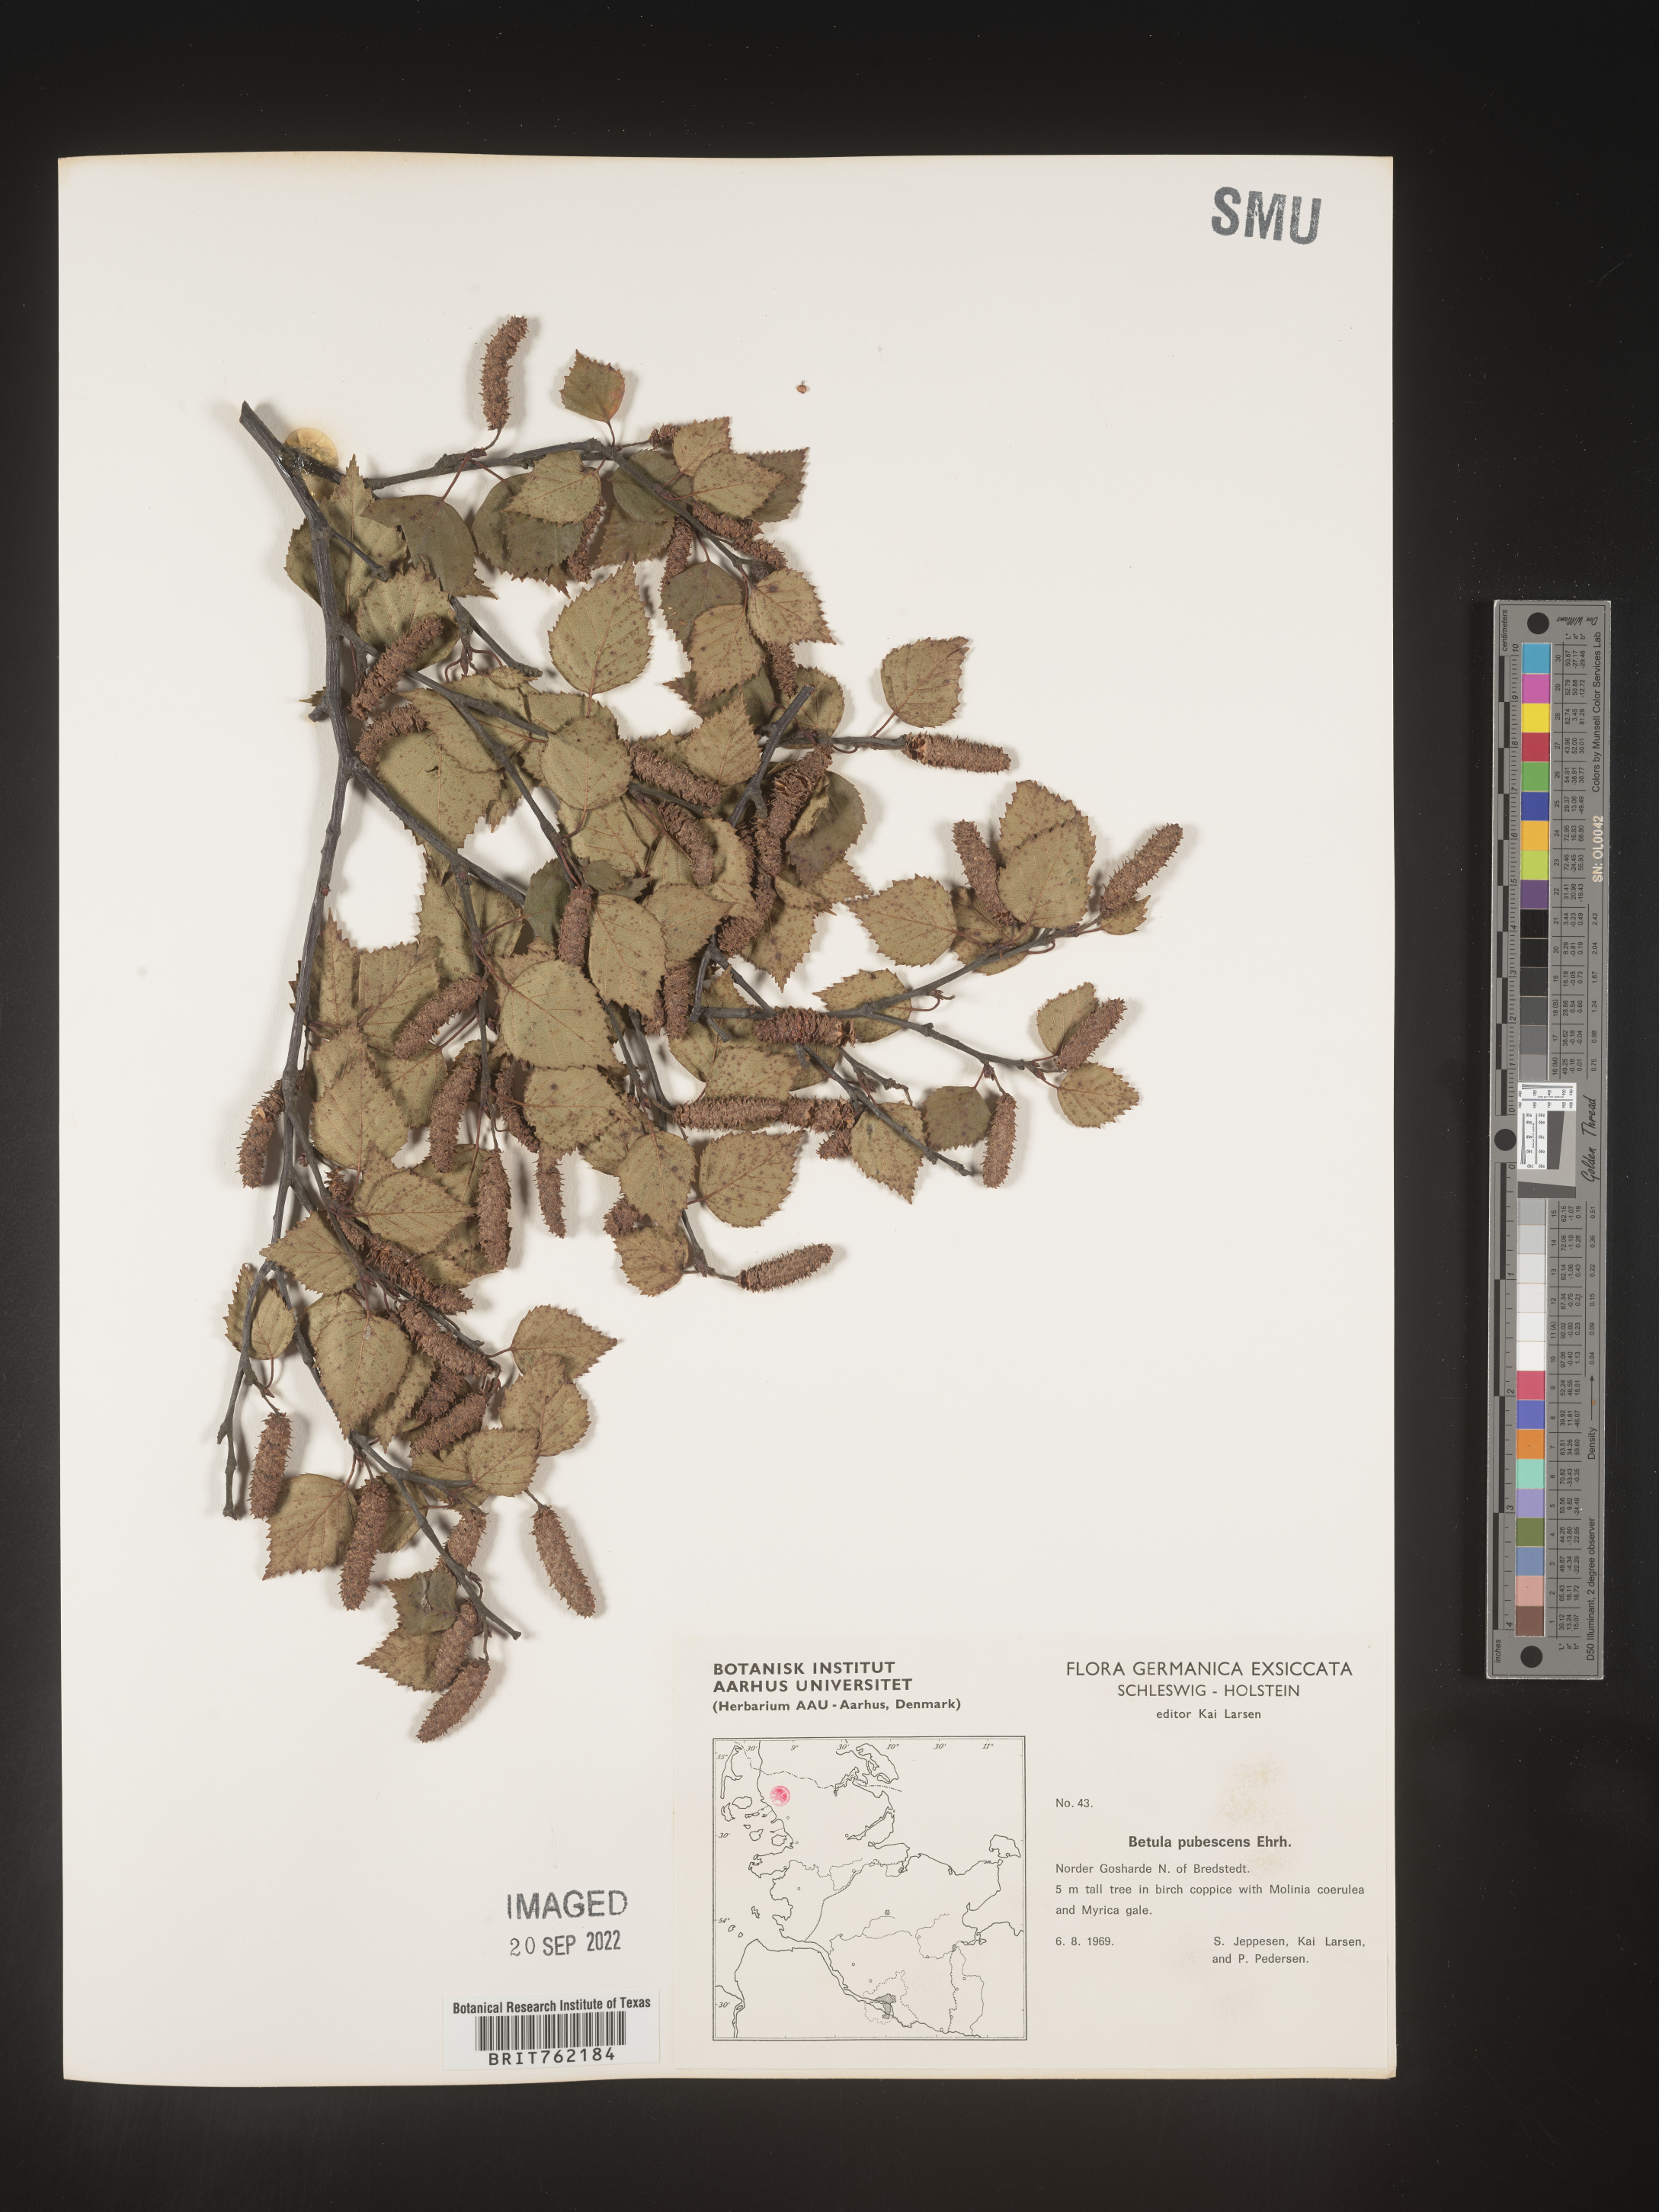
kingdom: Plantae
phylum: Tracheophyta
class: Magnoliopsida
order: Fagales
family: Betulaceae
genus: Betula
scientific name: Betula
